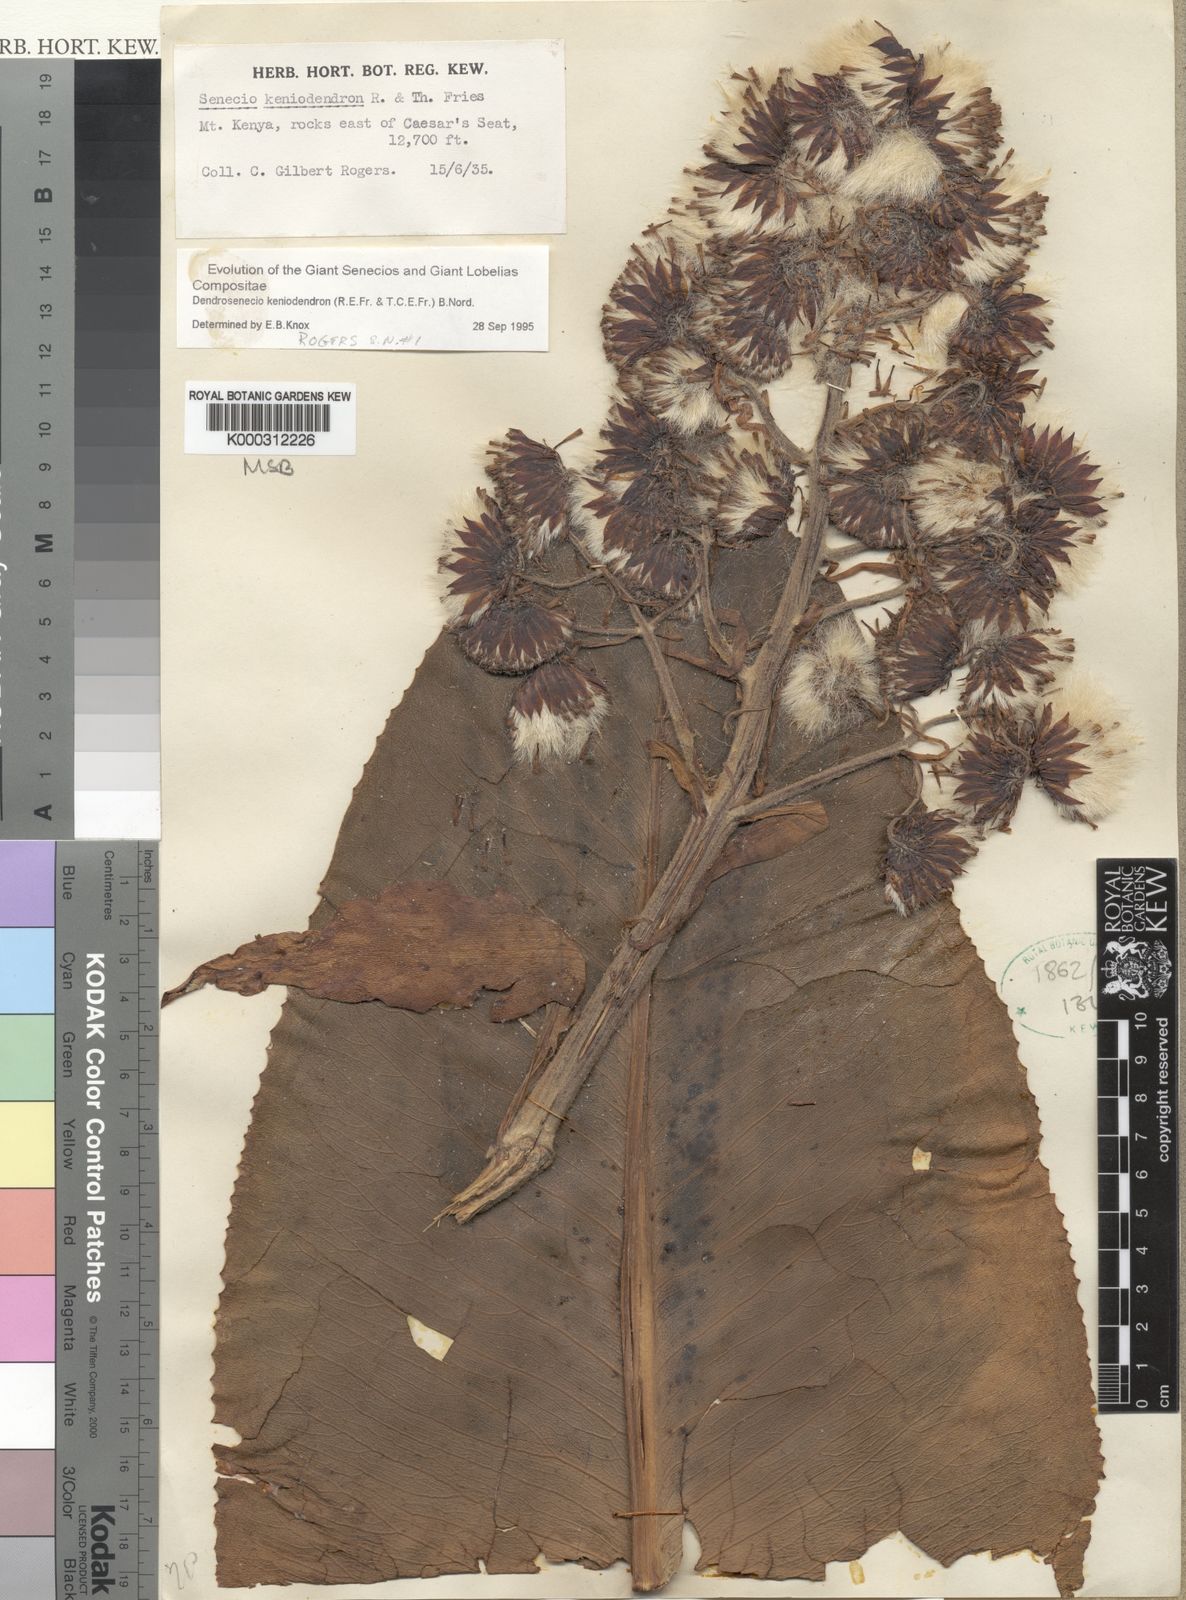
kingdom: Plantae
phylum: Tracheophyta
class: Magnoliopsida
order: Asterales
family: Asteraceae
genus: Dendrosenecio
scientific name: Dendrosenecio keniodendron
